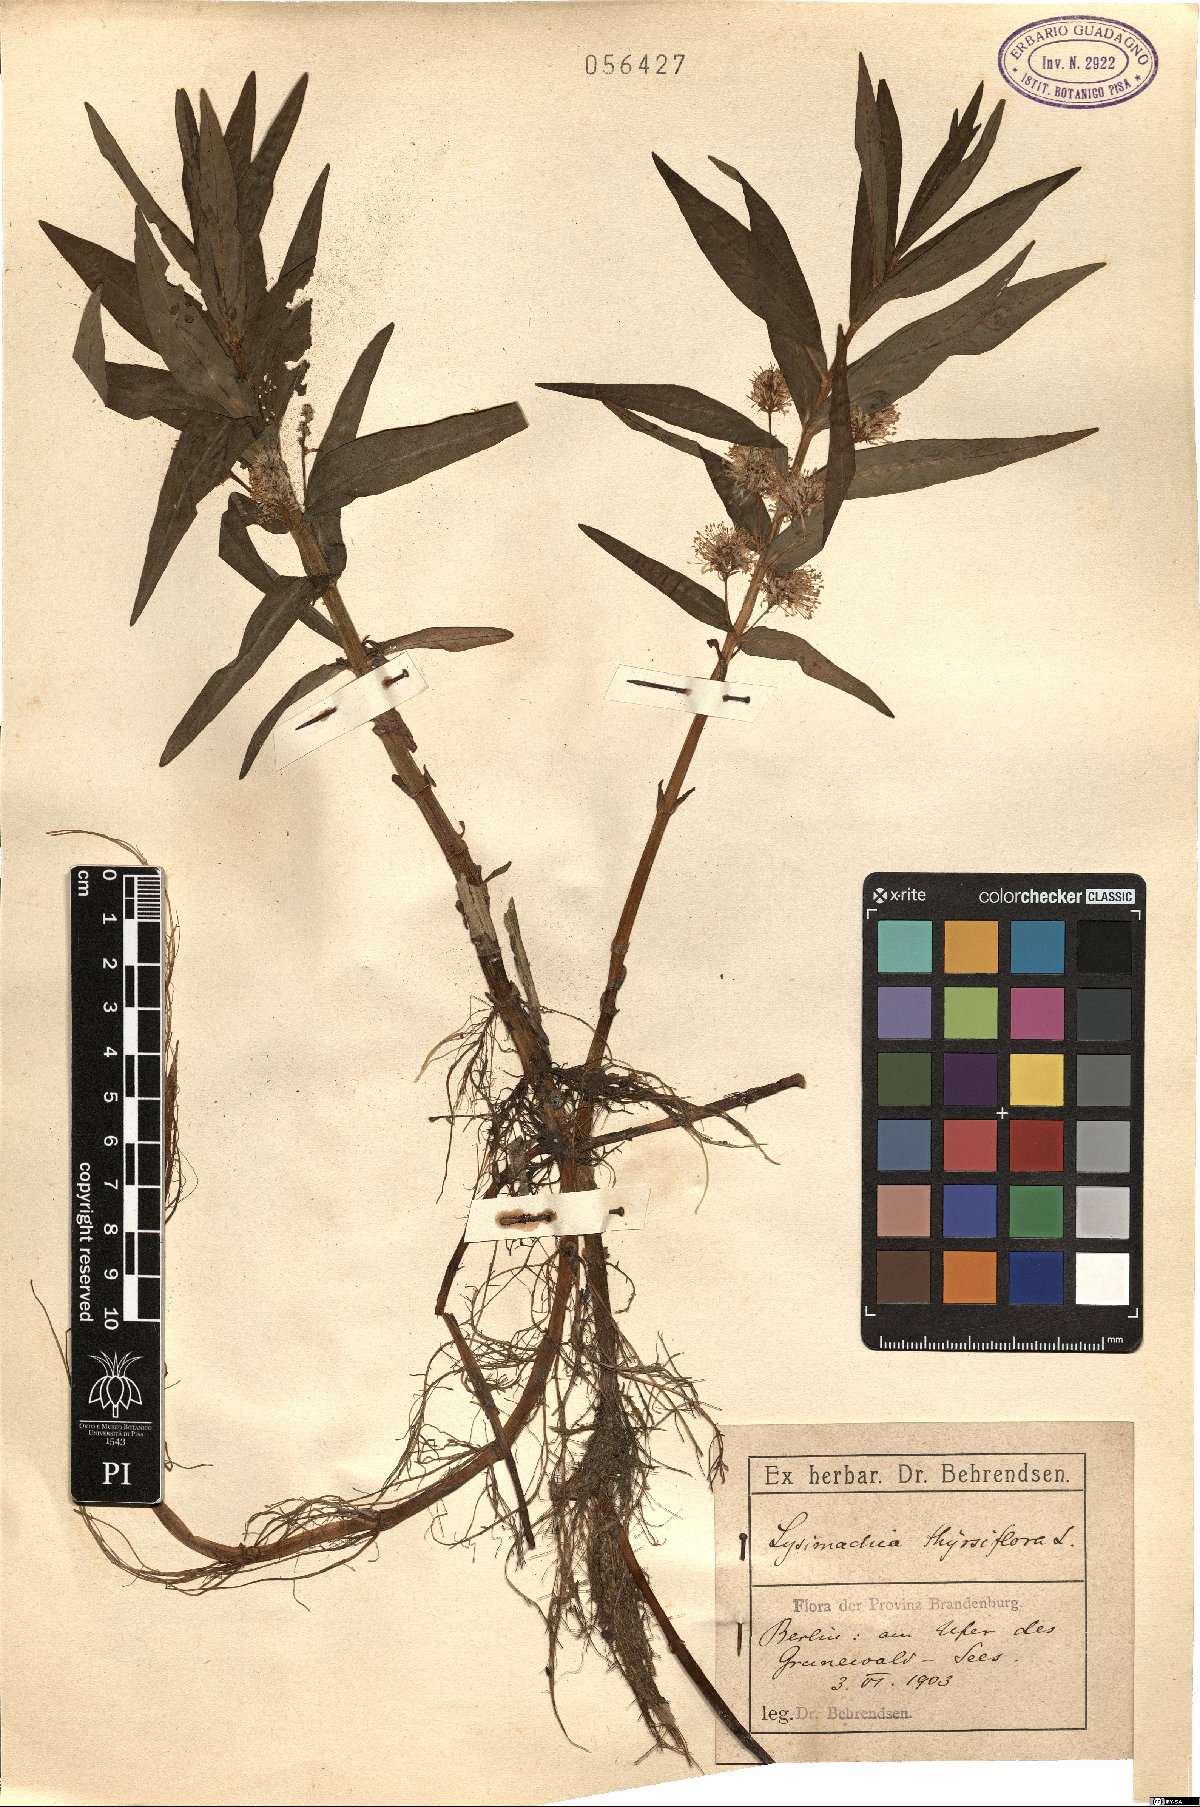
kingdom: Plantae
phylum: Tracheophyta
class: Magnoliopsida
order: Ericales
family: Primulaceae
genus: Lysimachia
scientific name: Lysimachia thyrsiflora
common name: Tufted loosestrife
